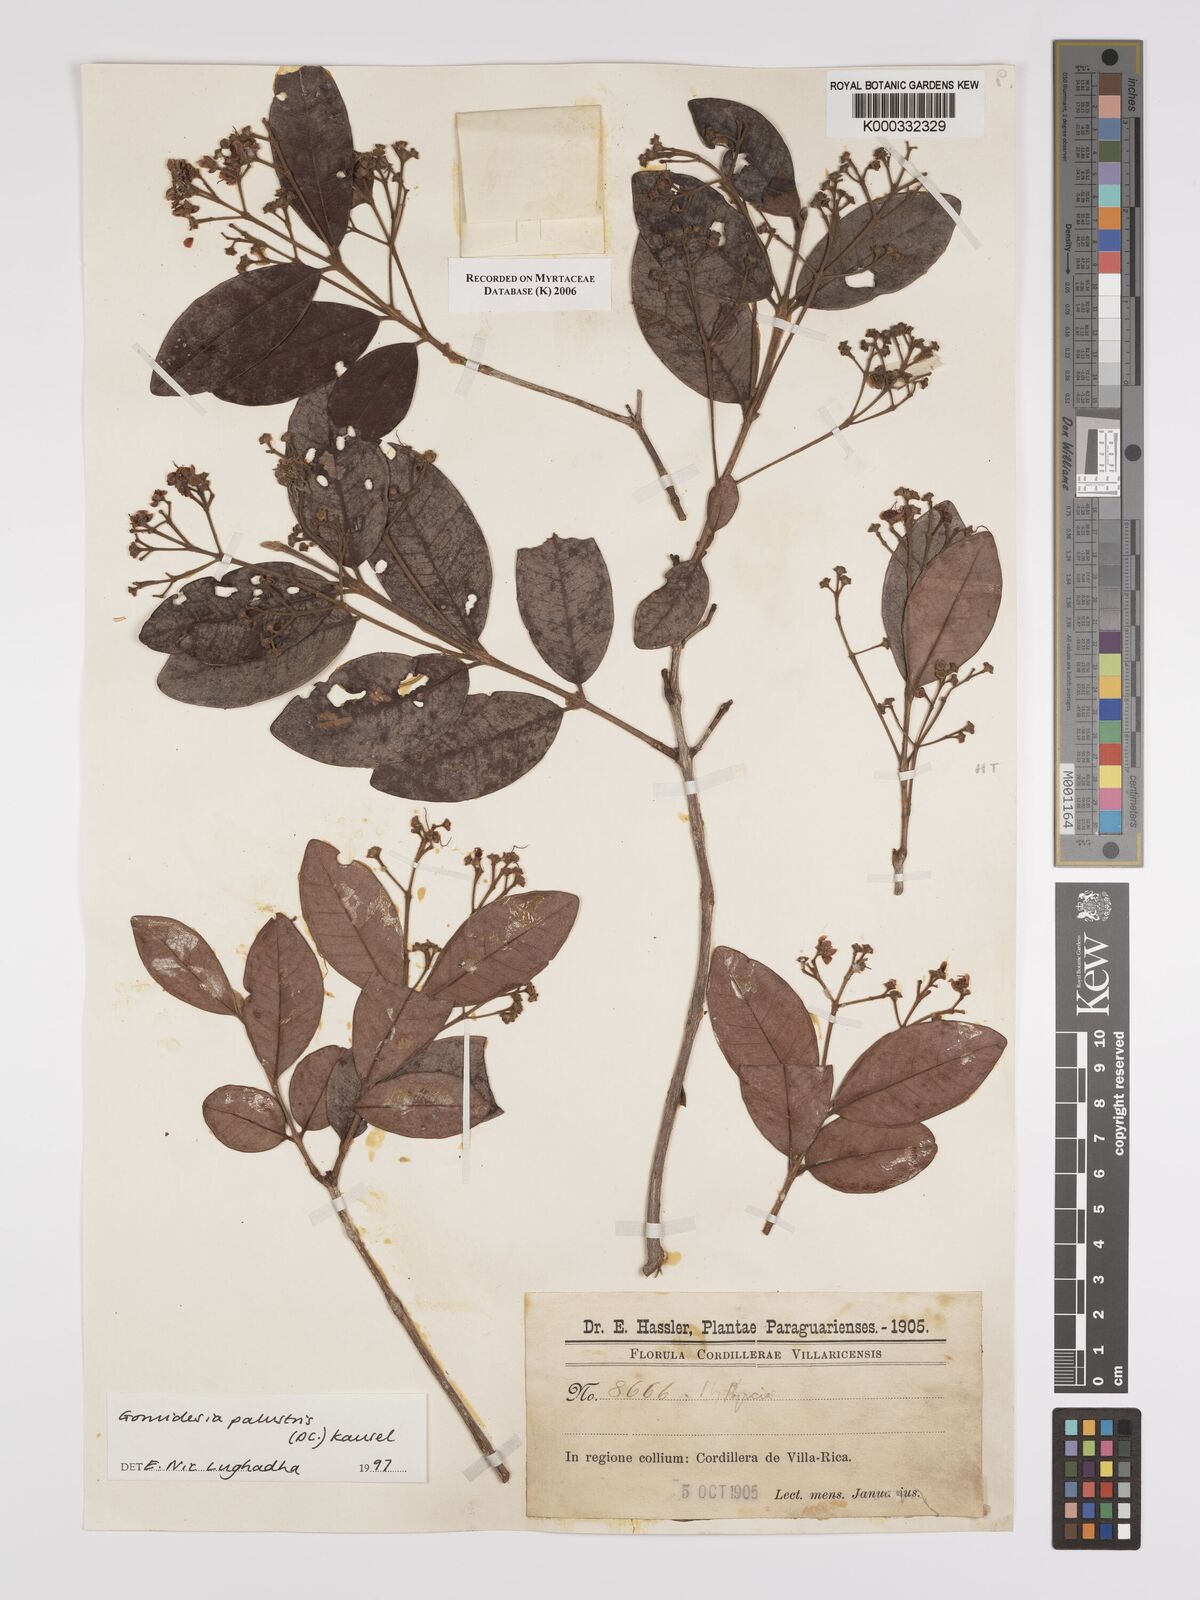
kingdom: Plantae
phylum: Tracheophyta
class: Magnoliopsida
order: Myrtales
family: Myrtaceae
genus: Myrcia
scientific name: Myrcia palustris
